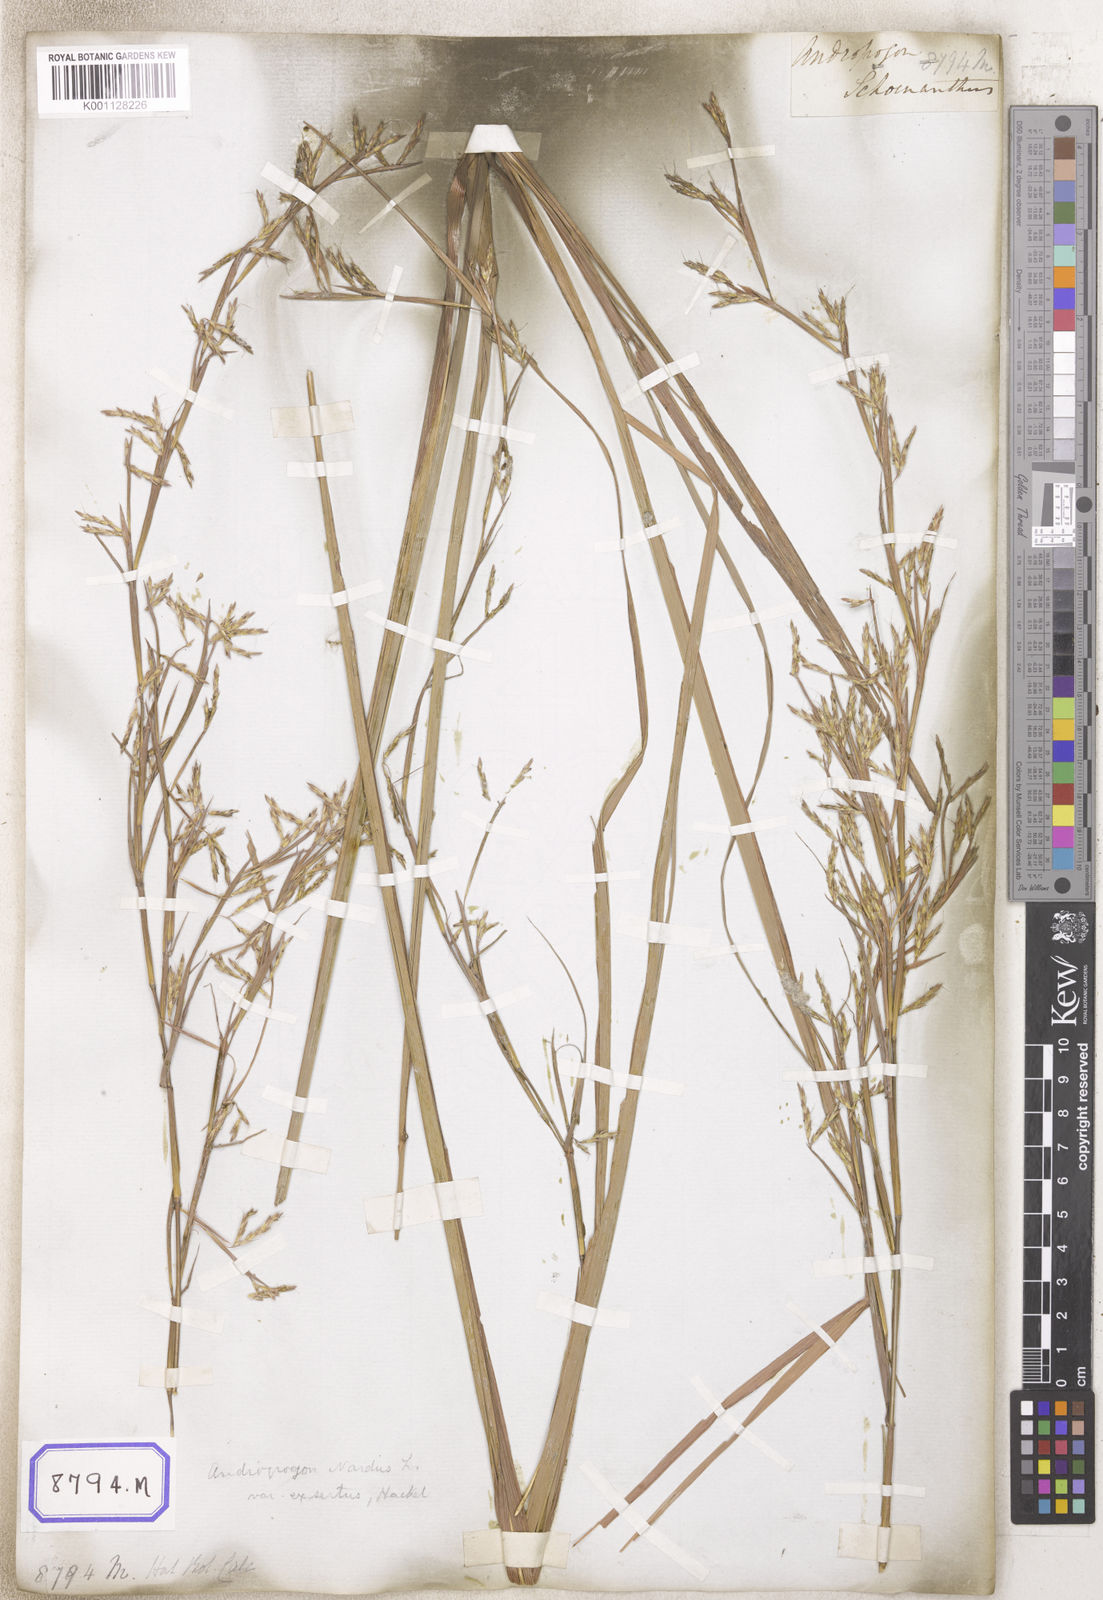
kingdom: Plantae
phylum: Tracheophyta
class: Liliopsida
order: Poales
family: Poaceae
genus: Cymbopogon
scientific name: Cymbopogon schoenanthus
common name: Geranium grass
